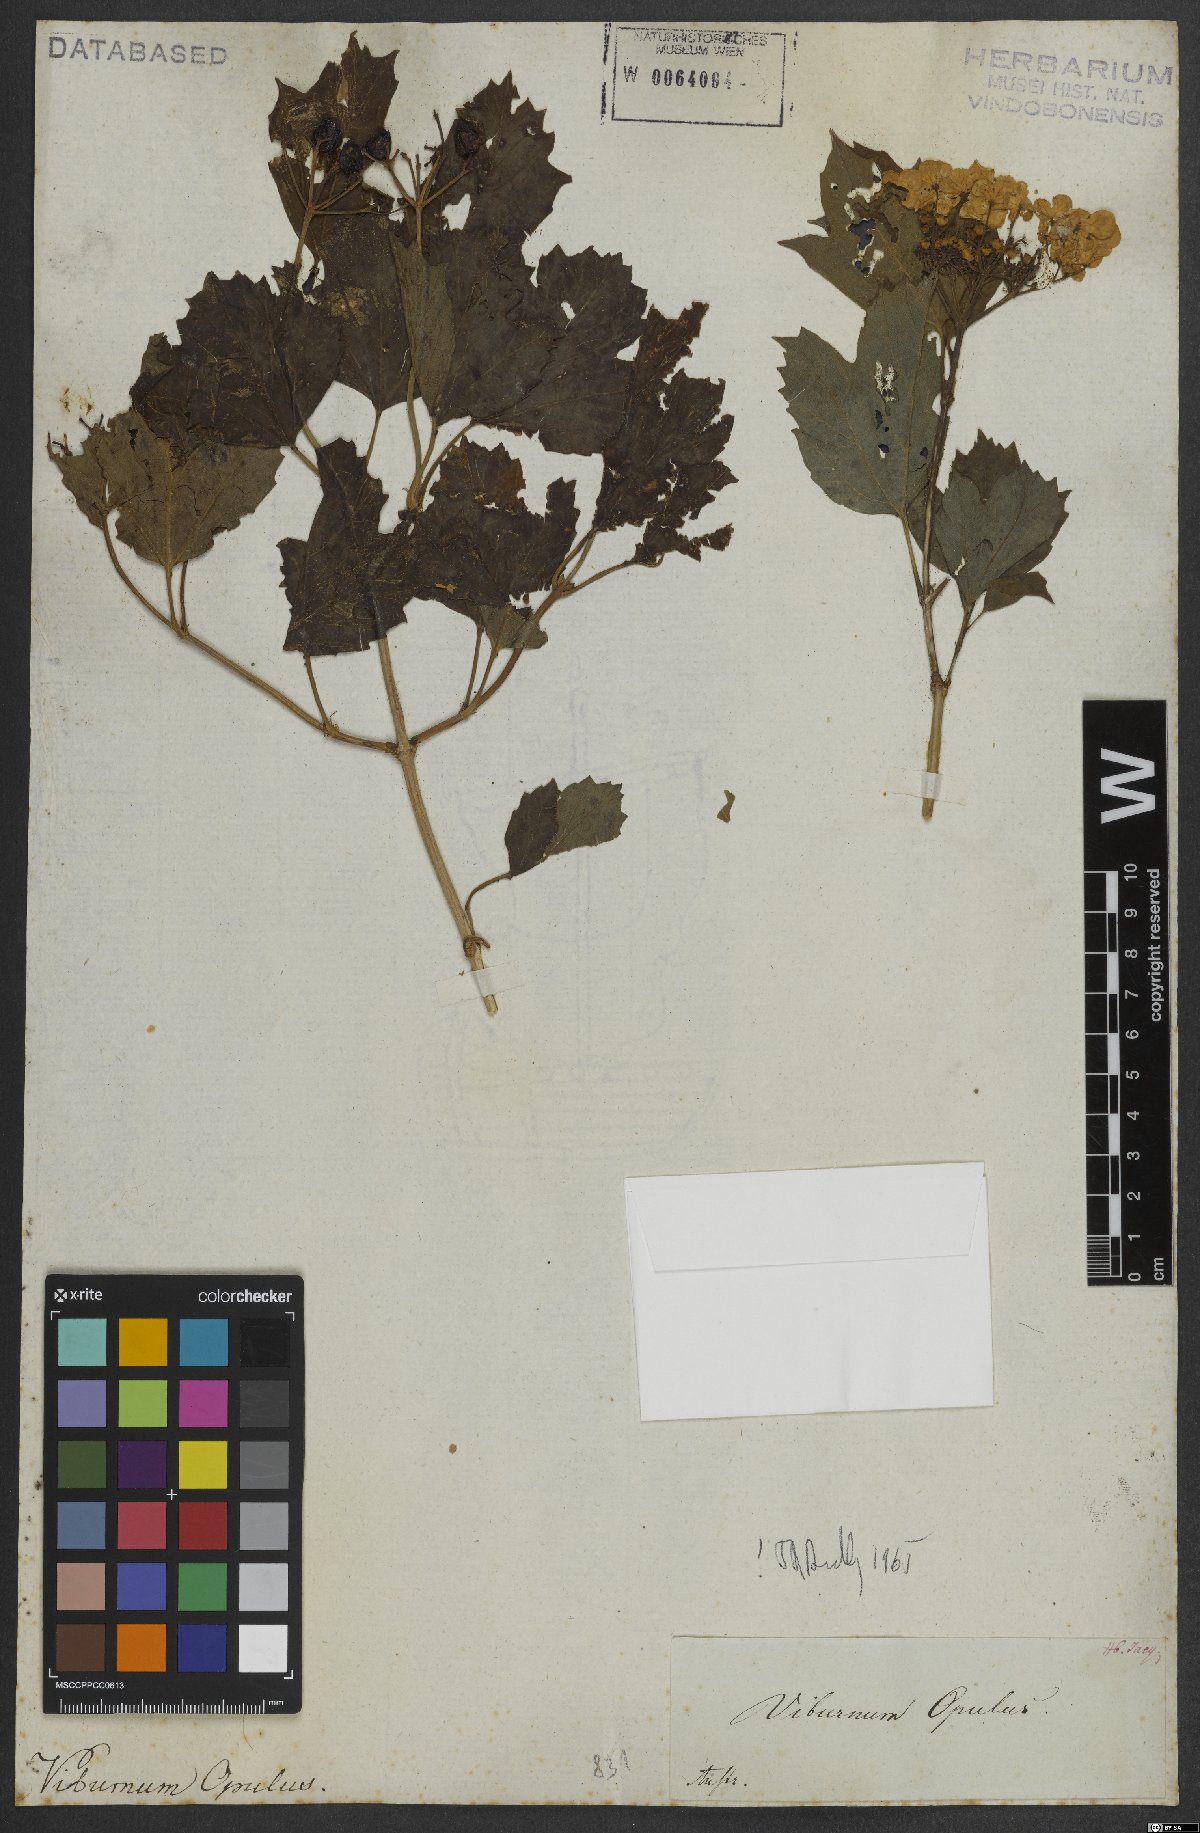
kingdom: Plantae
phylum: Tracheophyta
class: Magnoliopsida
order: Dipsacales
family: Viburnaceae
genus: Viburnum
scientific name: Viburnum opulus
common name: Guelder-rose
